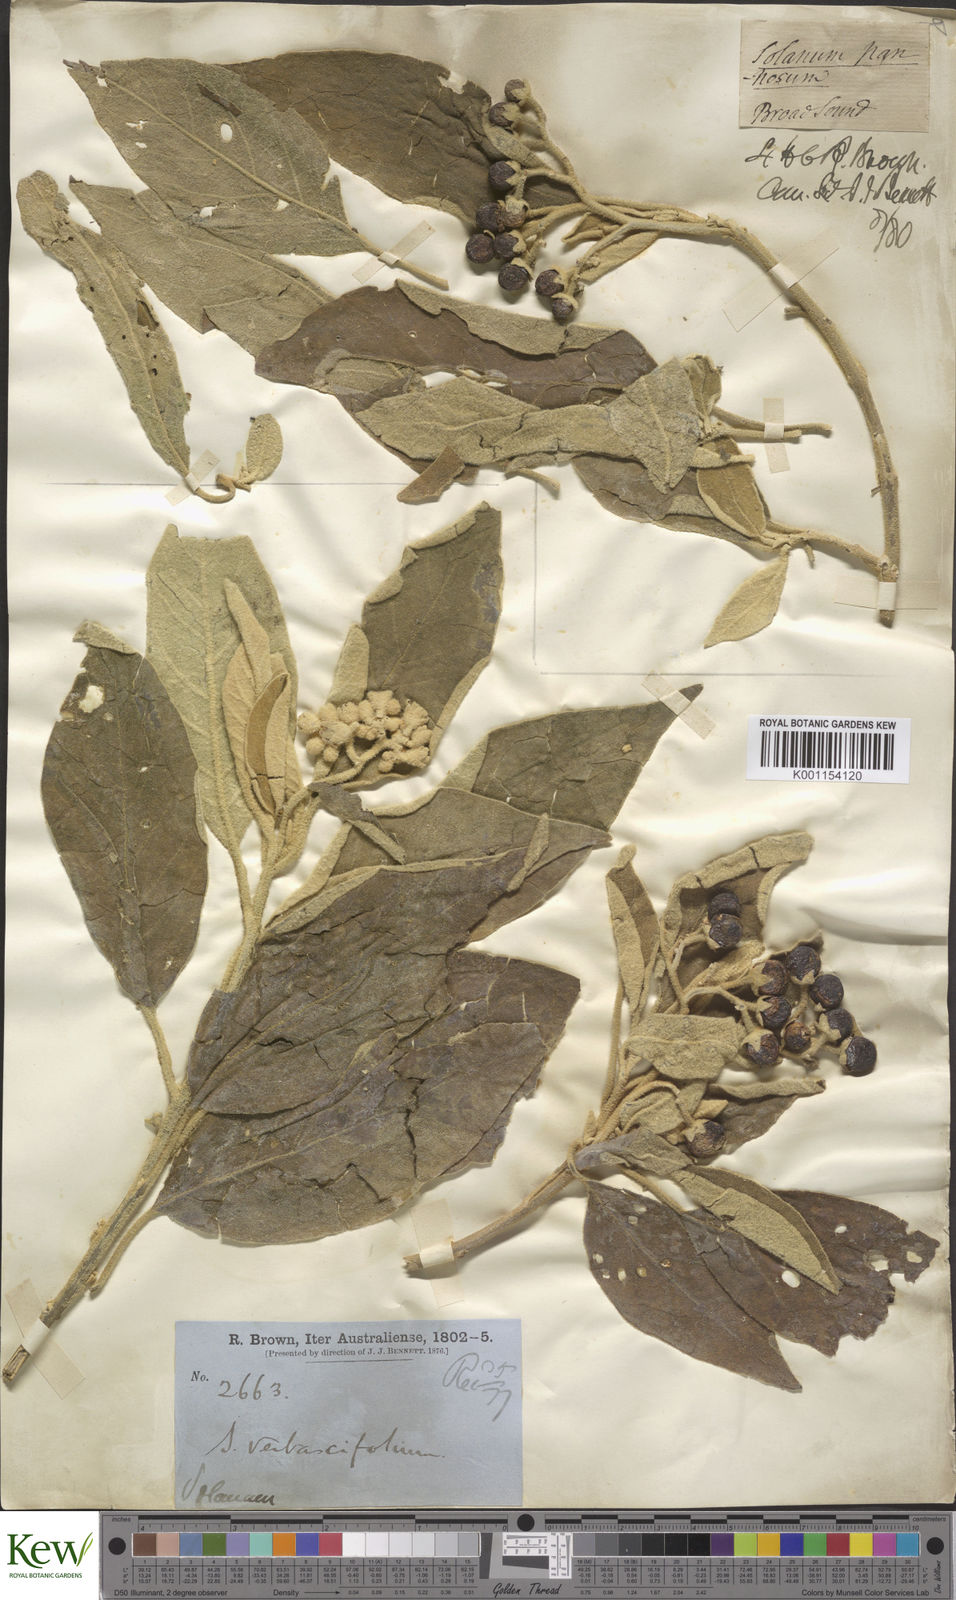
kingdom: Plantae
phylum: Tracheophyta
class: Magnoliopsida
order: Solanales
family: Solanaceae
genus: Solanum
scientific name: Solanum erianthum
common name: Tobacco-tree
